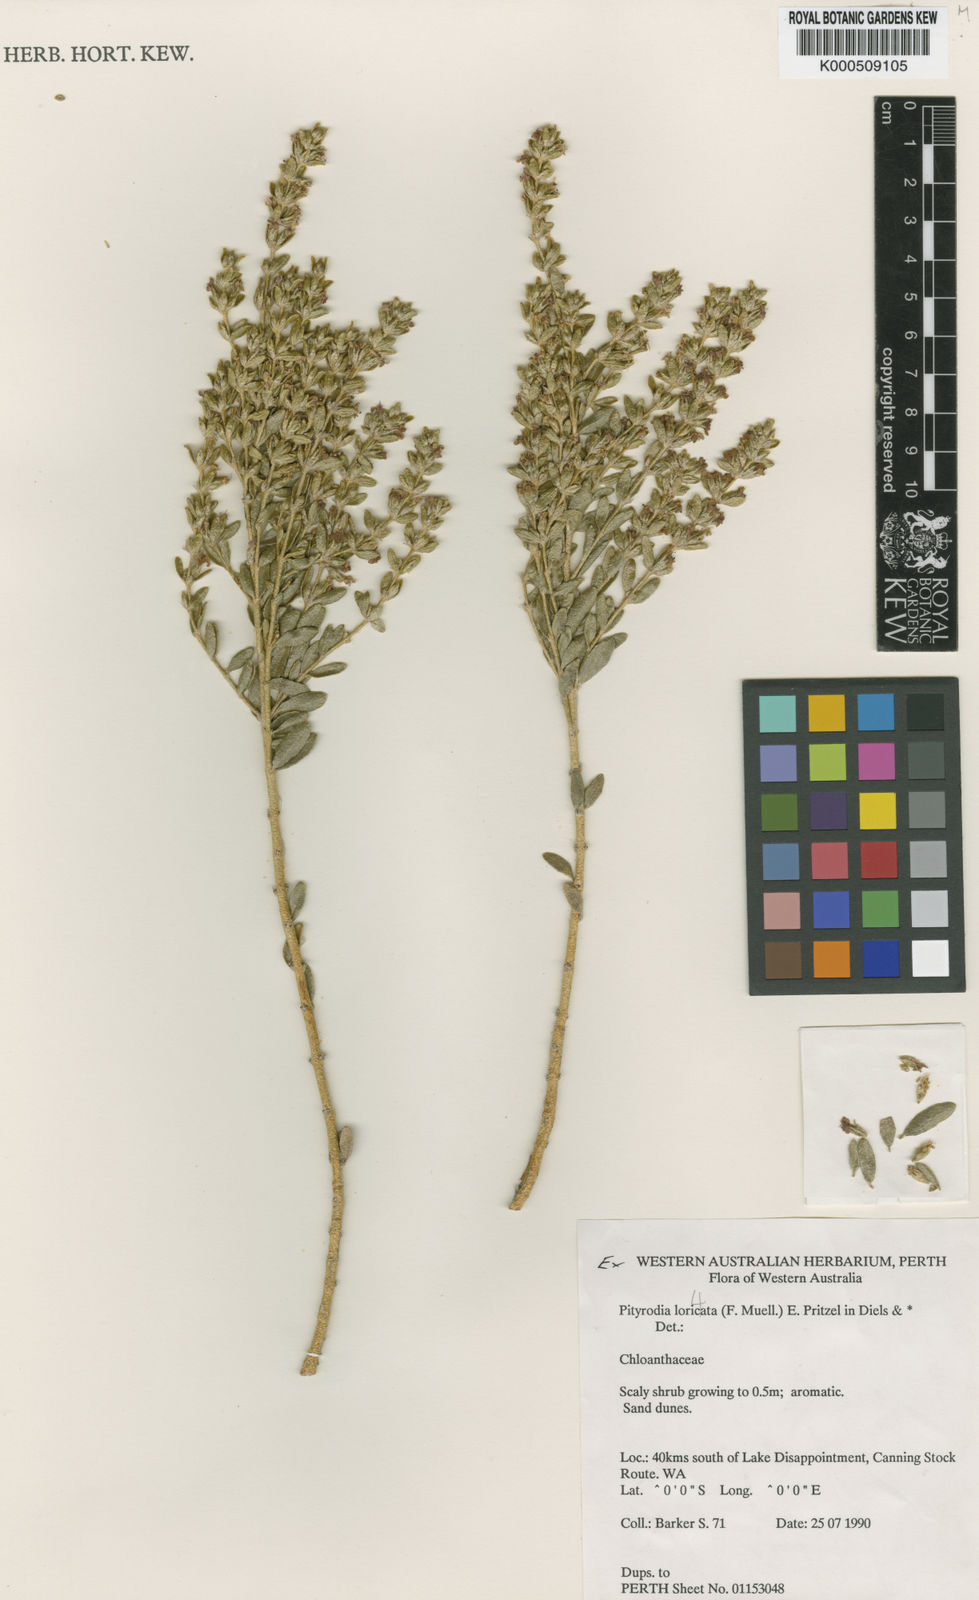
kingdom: Plantae
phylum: Tracheophyta
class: Magnoliopsida
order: Lamiales
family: Lamiaceae
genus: Pityrodia
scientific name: Pityrodia loricata
